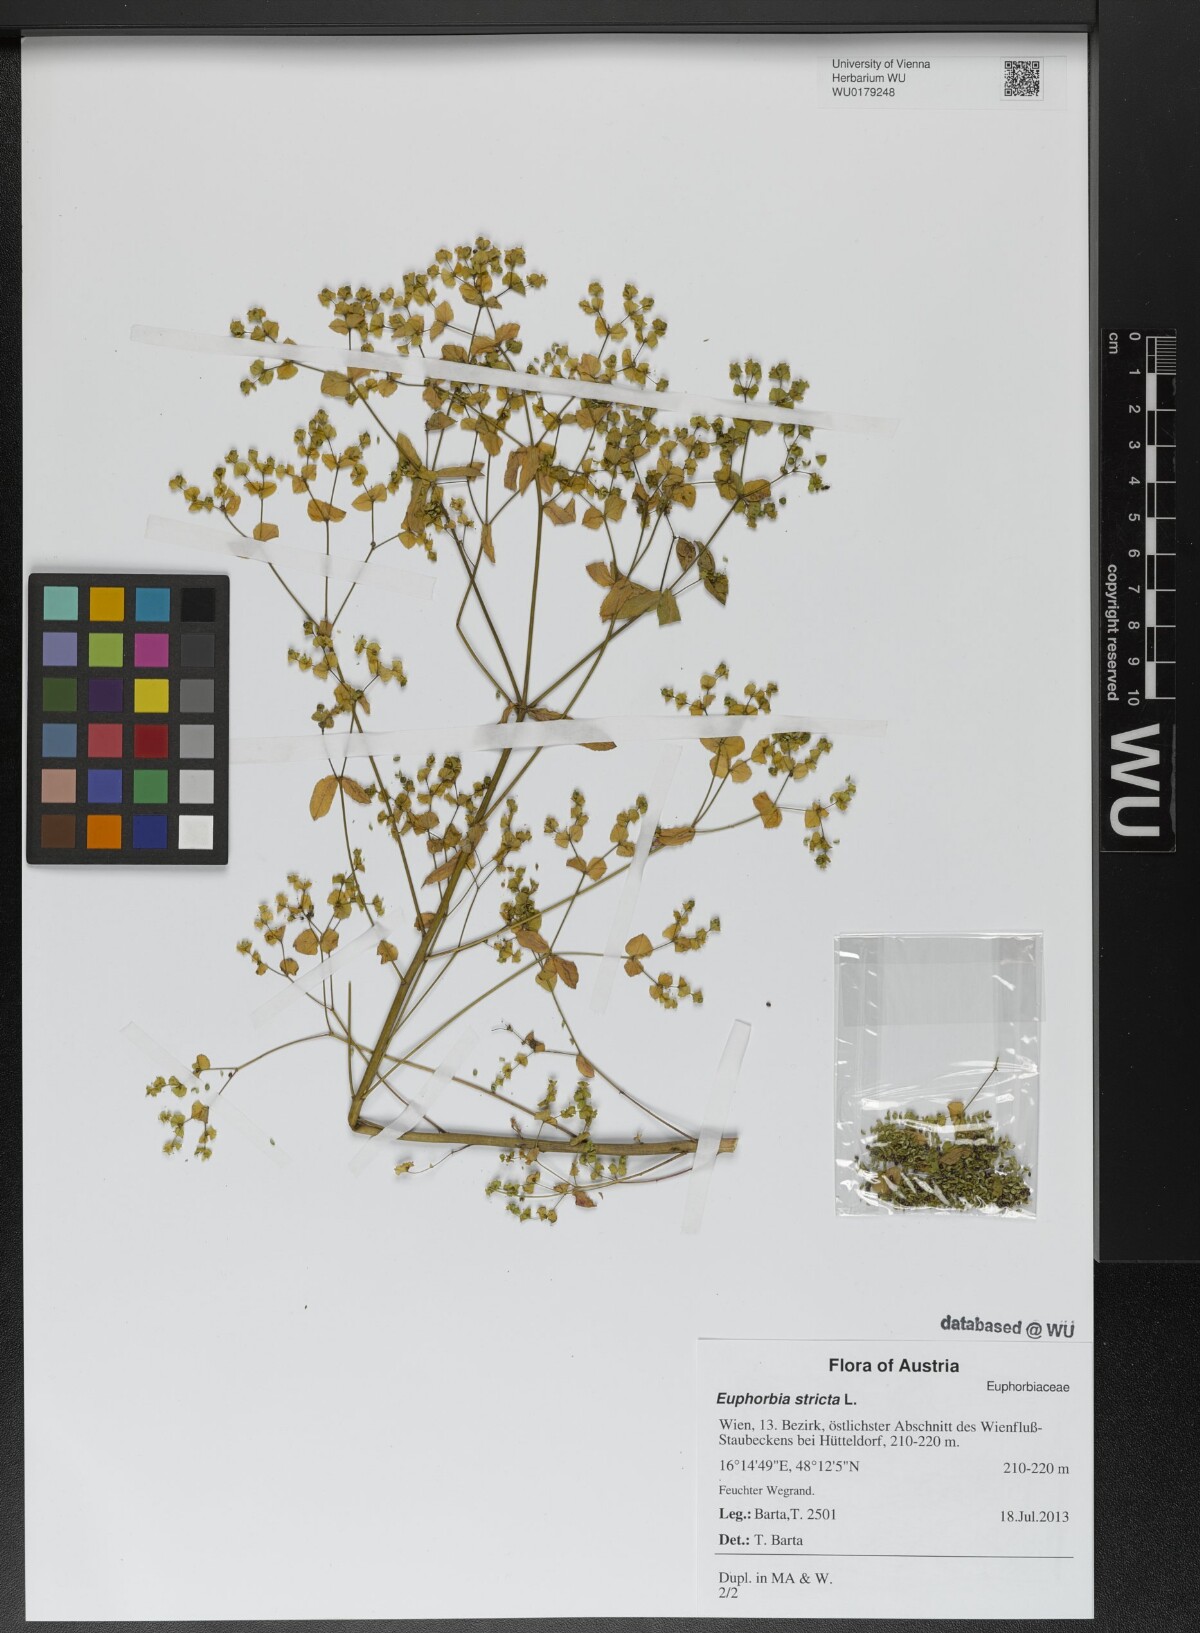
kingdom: Plantae
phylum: Tracheophyta
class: Magnoliopsida
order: Malpighiales
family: Euphorbiaceae
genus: Euphorbia
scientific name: Euphorbia stricta
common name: Upright spurge
